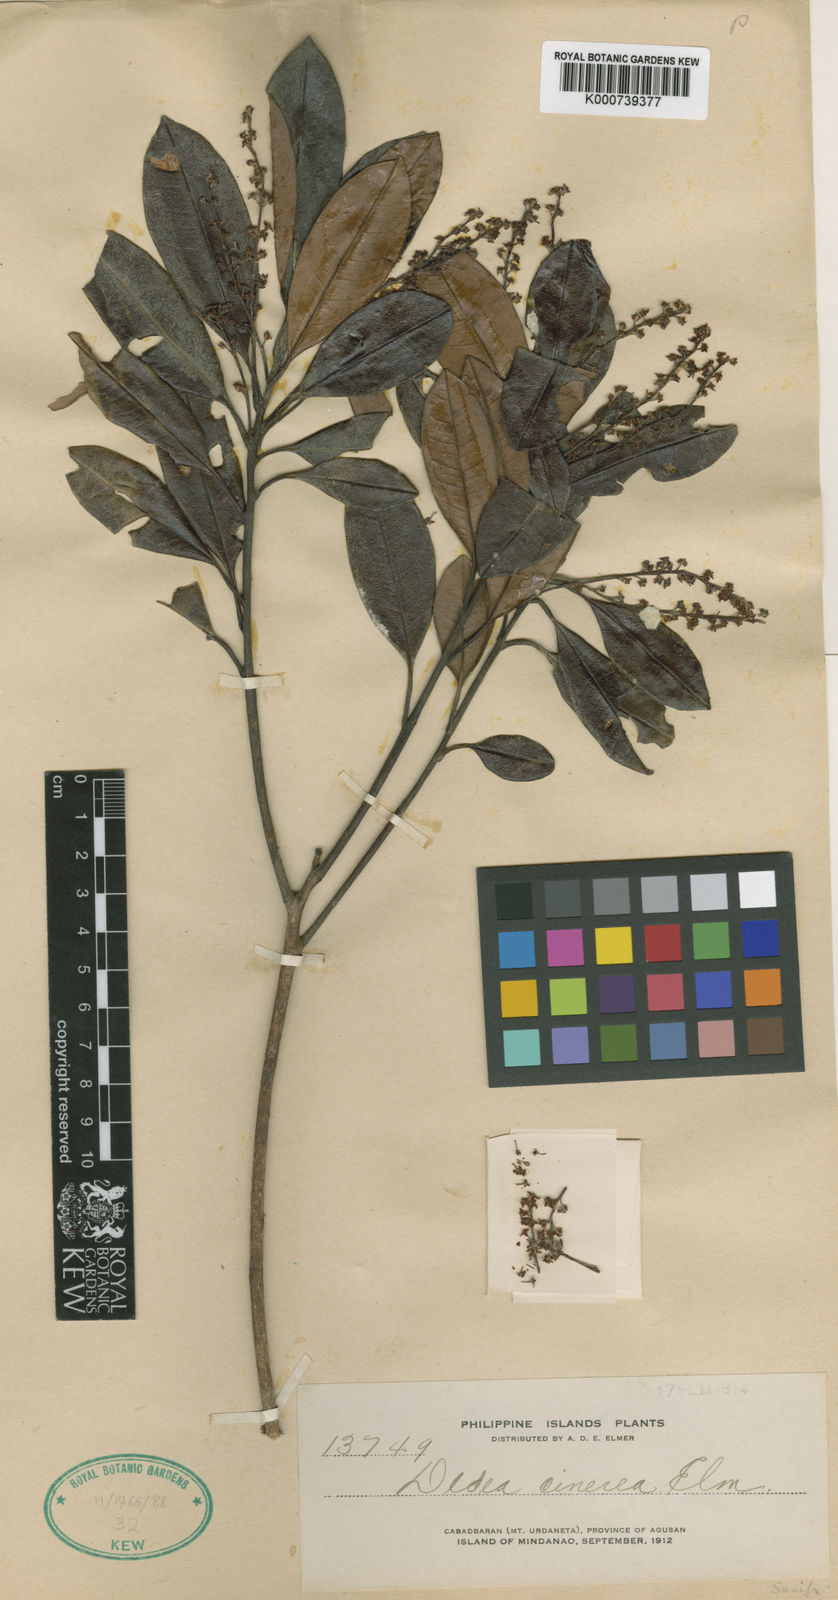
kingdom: Plantae
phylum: Tracheophyta
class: Magnoliopsida
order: Paracryphiales
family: Paracryphiaceae
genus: Quintinia
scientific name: Quintinia
